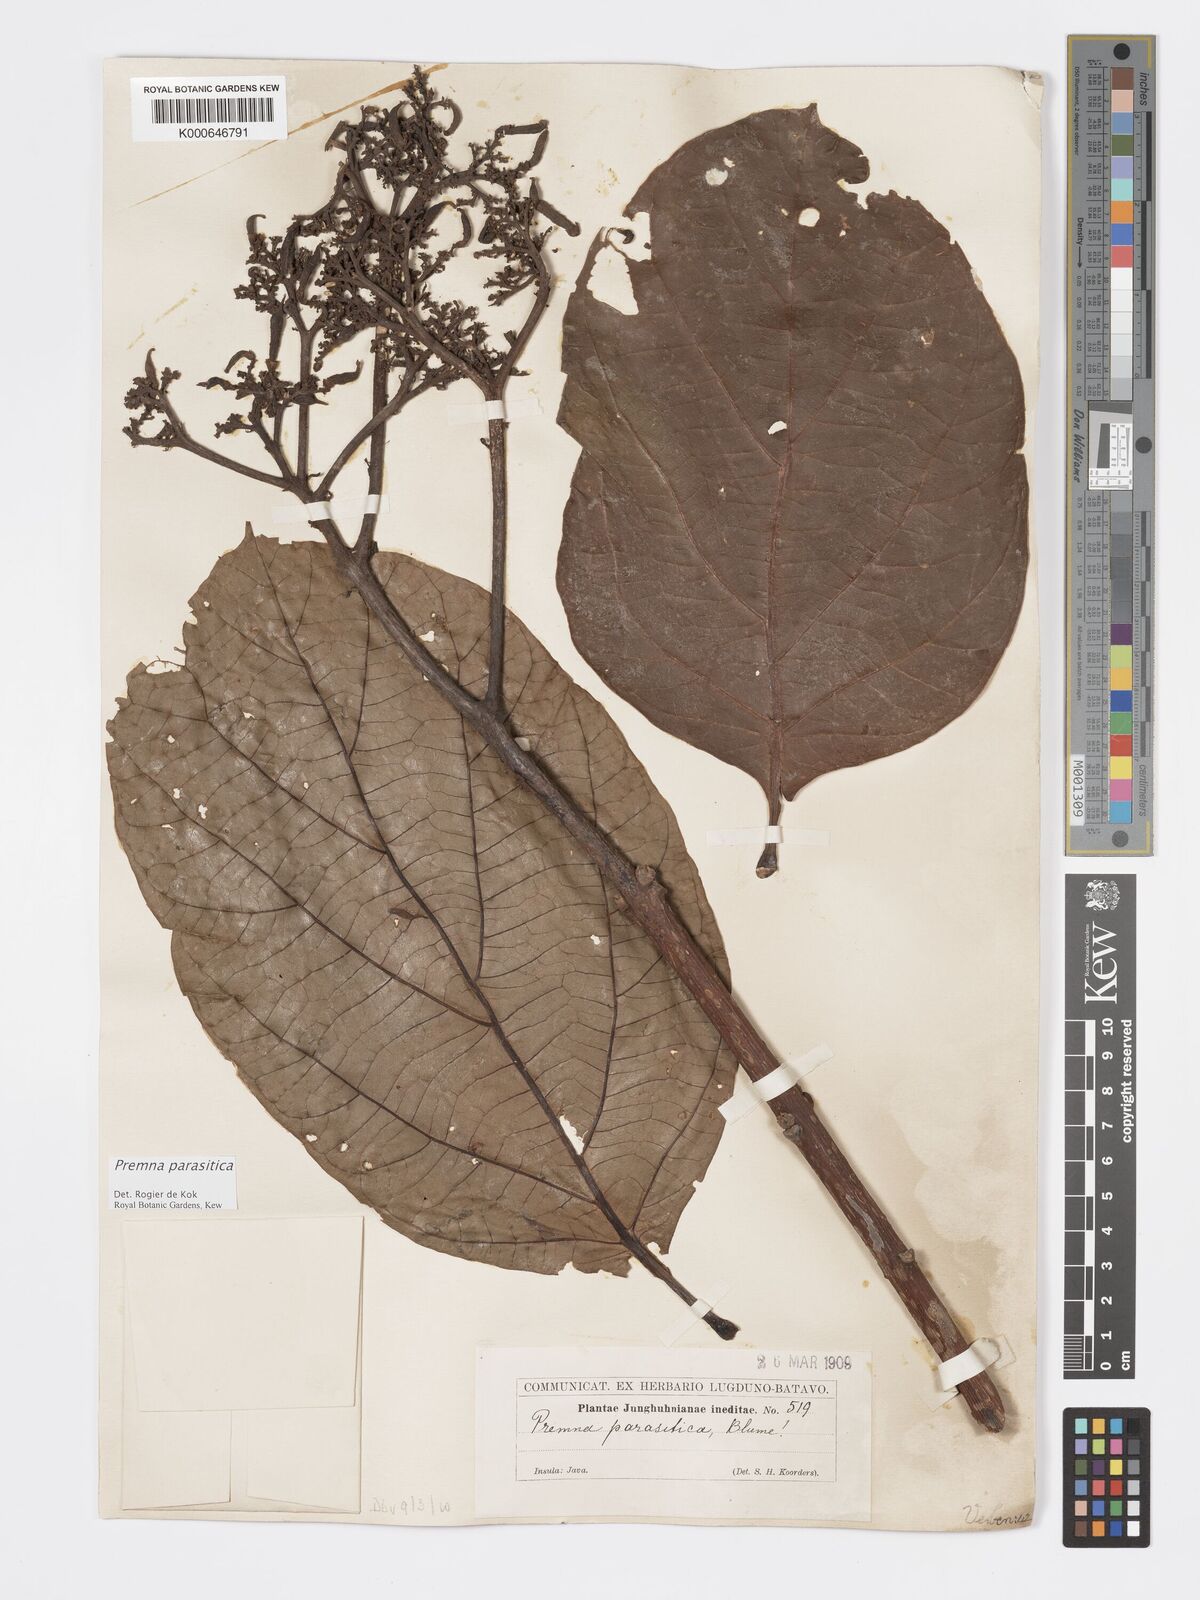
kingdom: Plantae
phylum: Tracheophyta
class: Magnoliopsida
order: Lamiales
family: Lamiaceae
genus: Premna
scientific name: Premna parasitica
